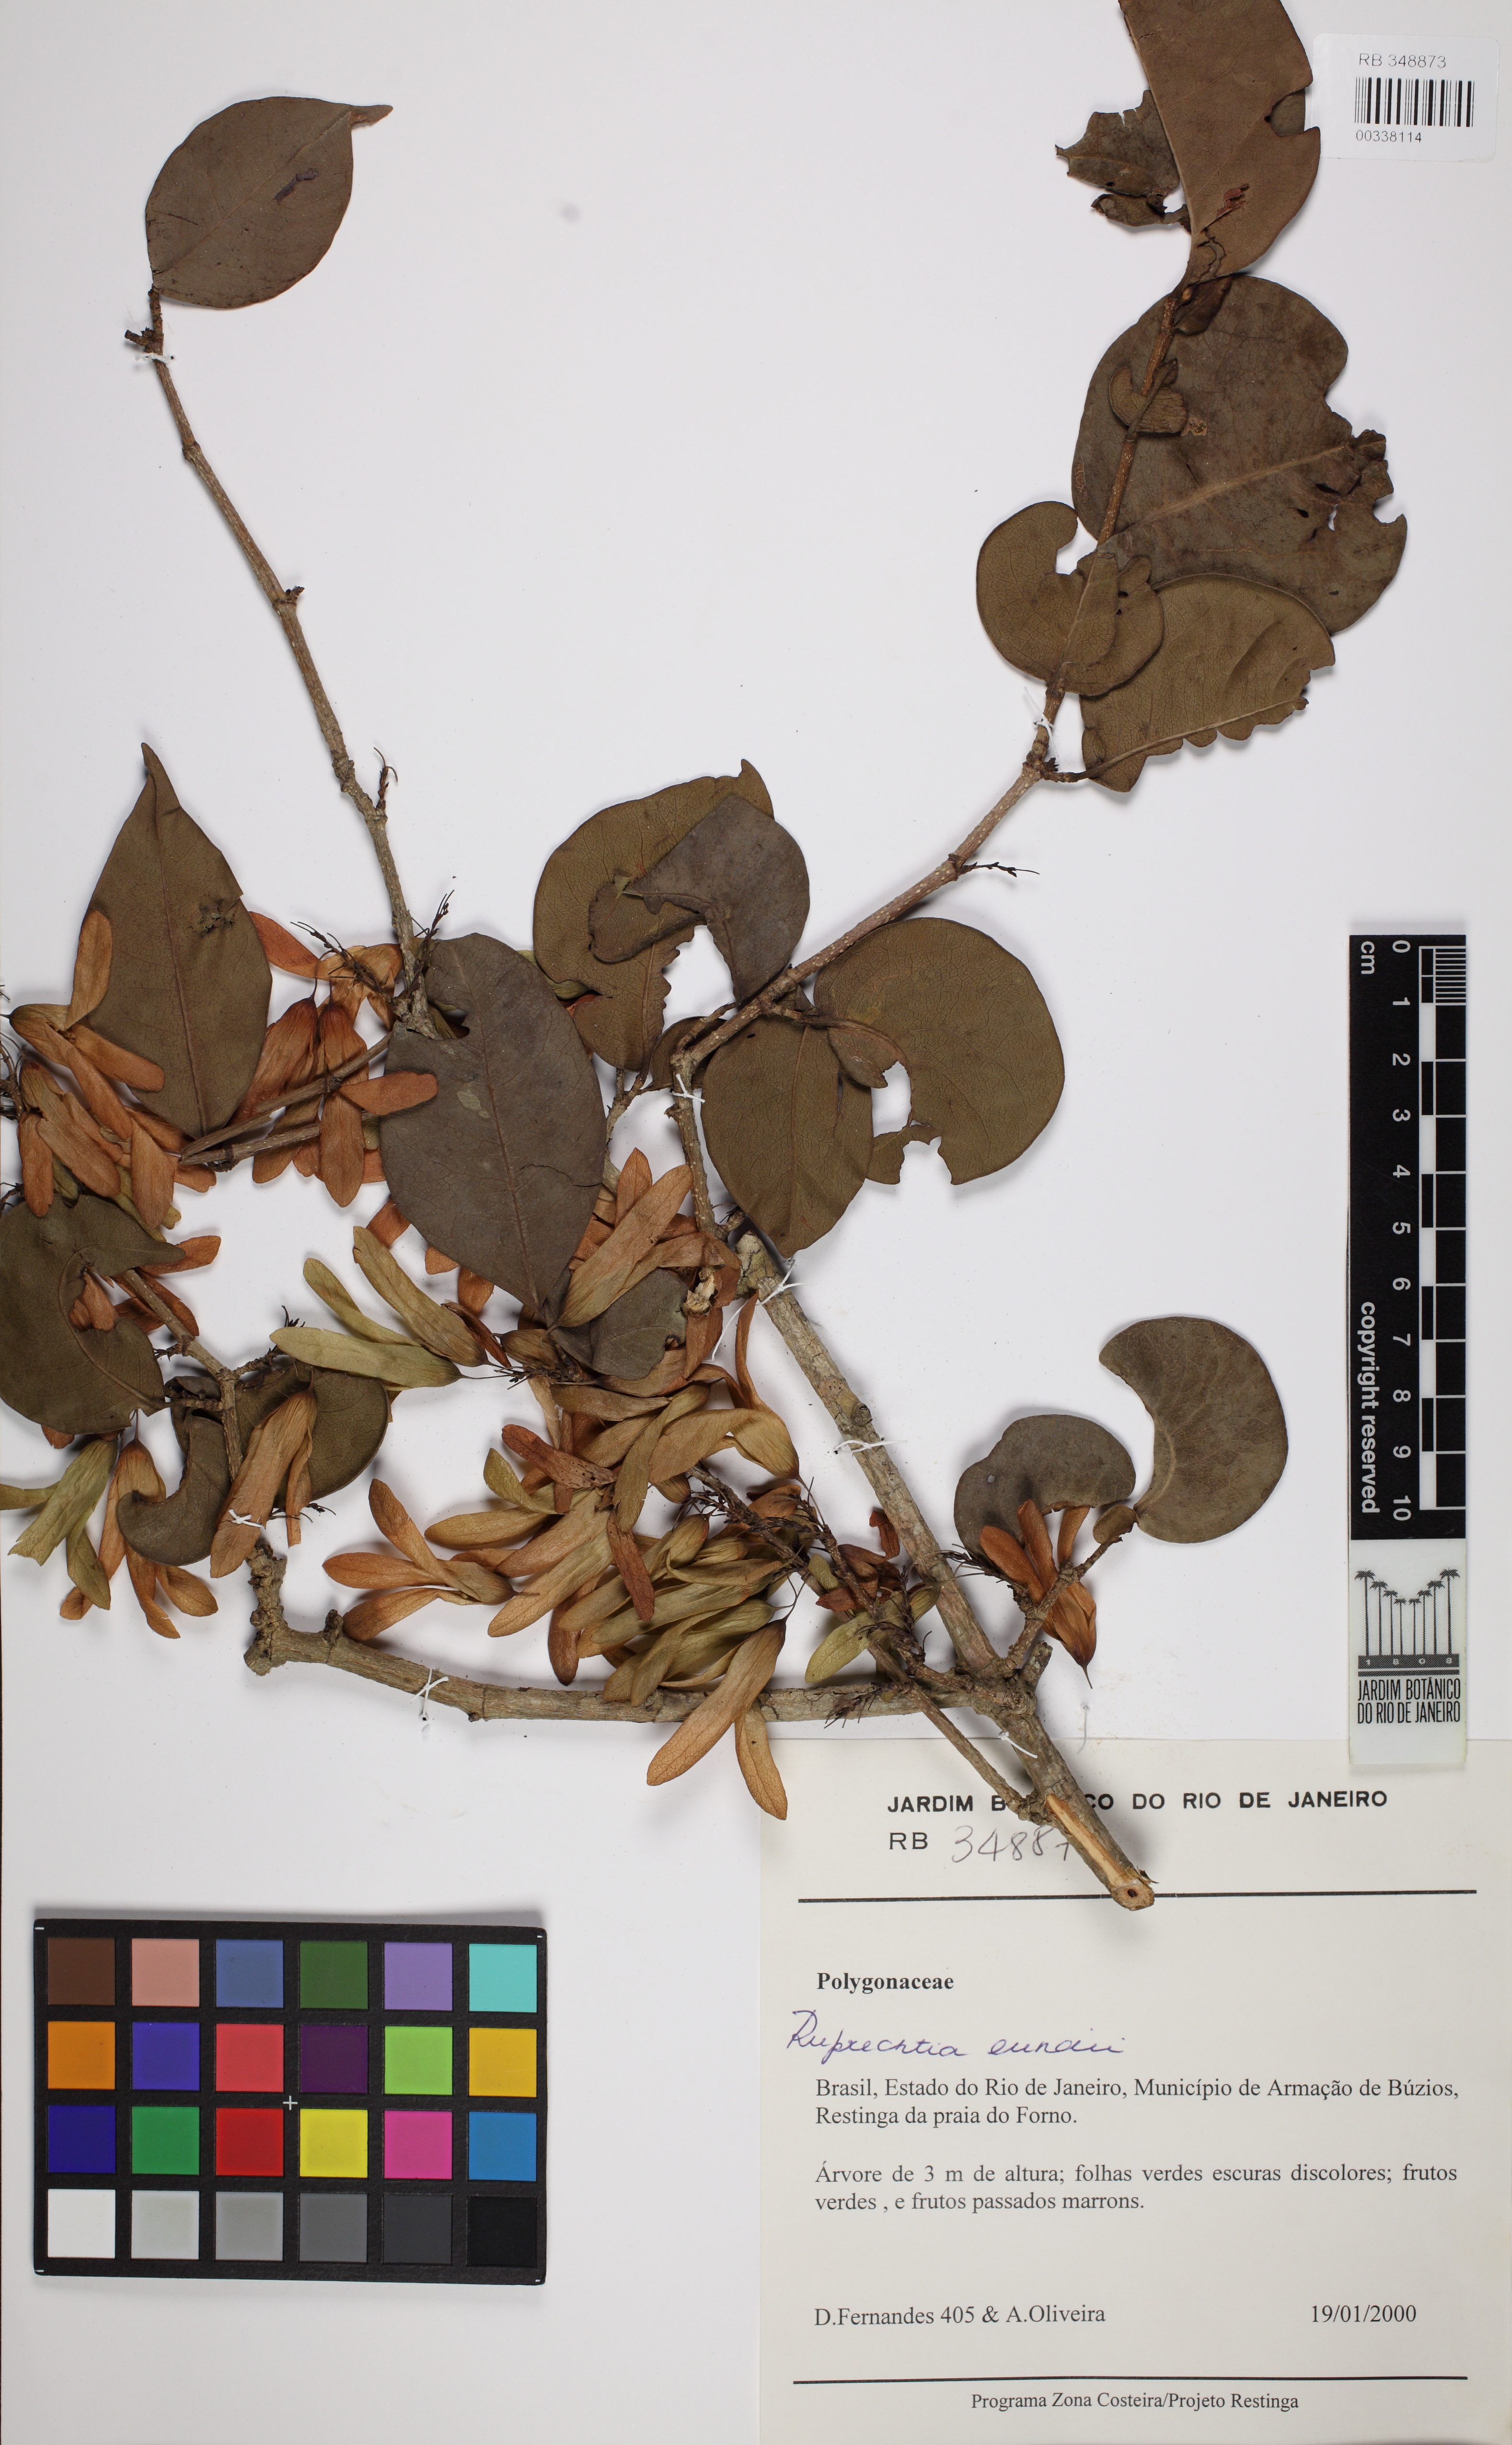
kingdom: Plantae
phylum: Tracheophyta
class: Magnoliopsida
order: Caryophyllales
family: Polygonaceae
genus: Ruprechtia
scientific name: Ruprechtia curranii
